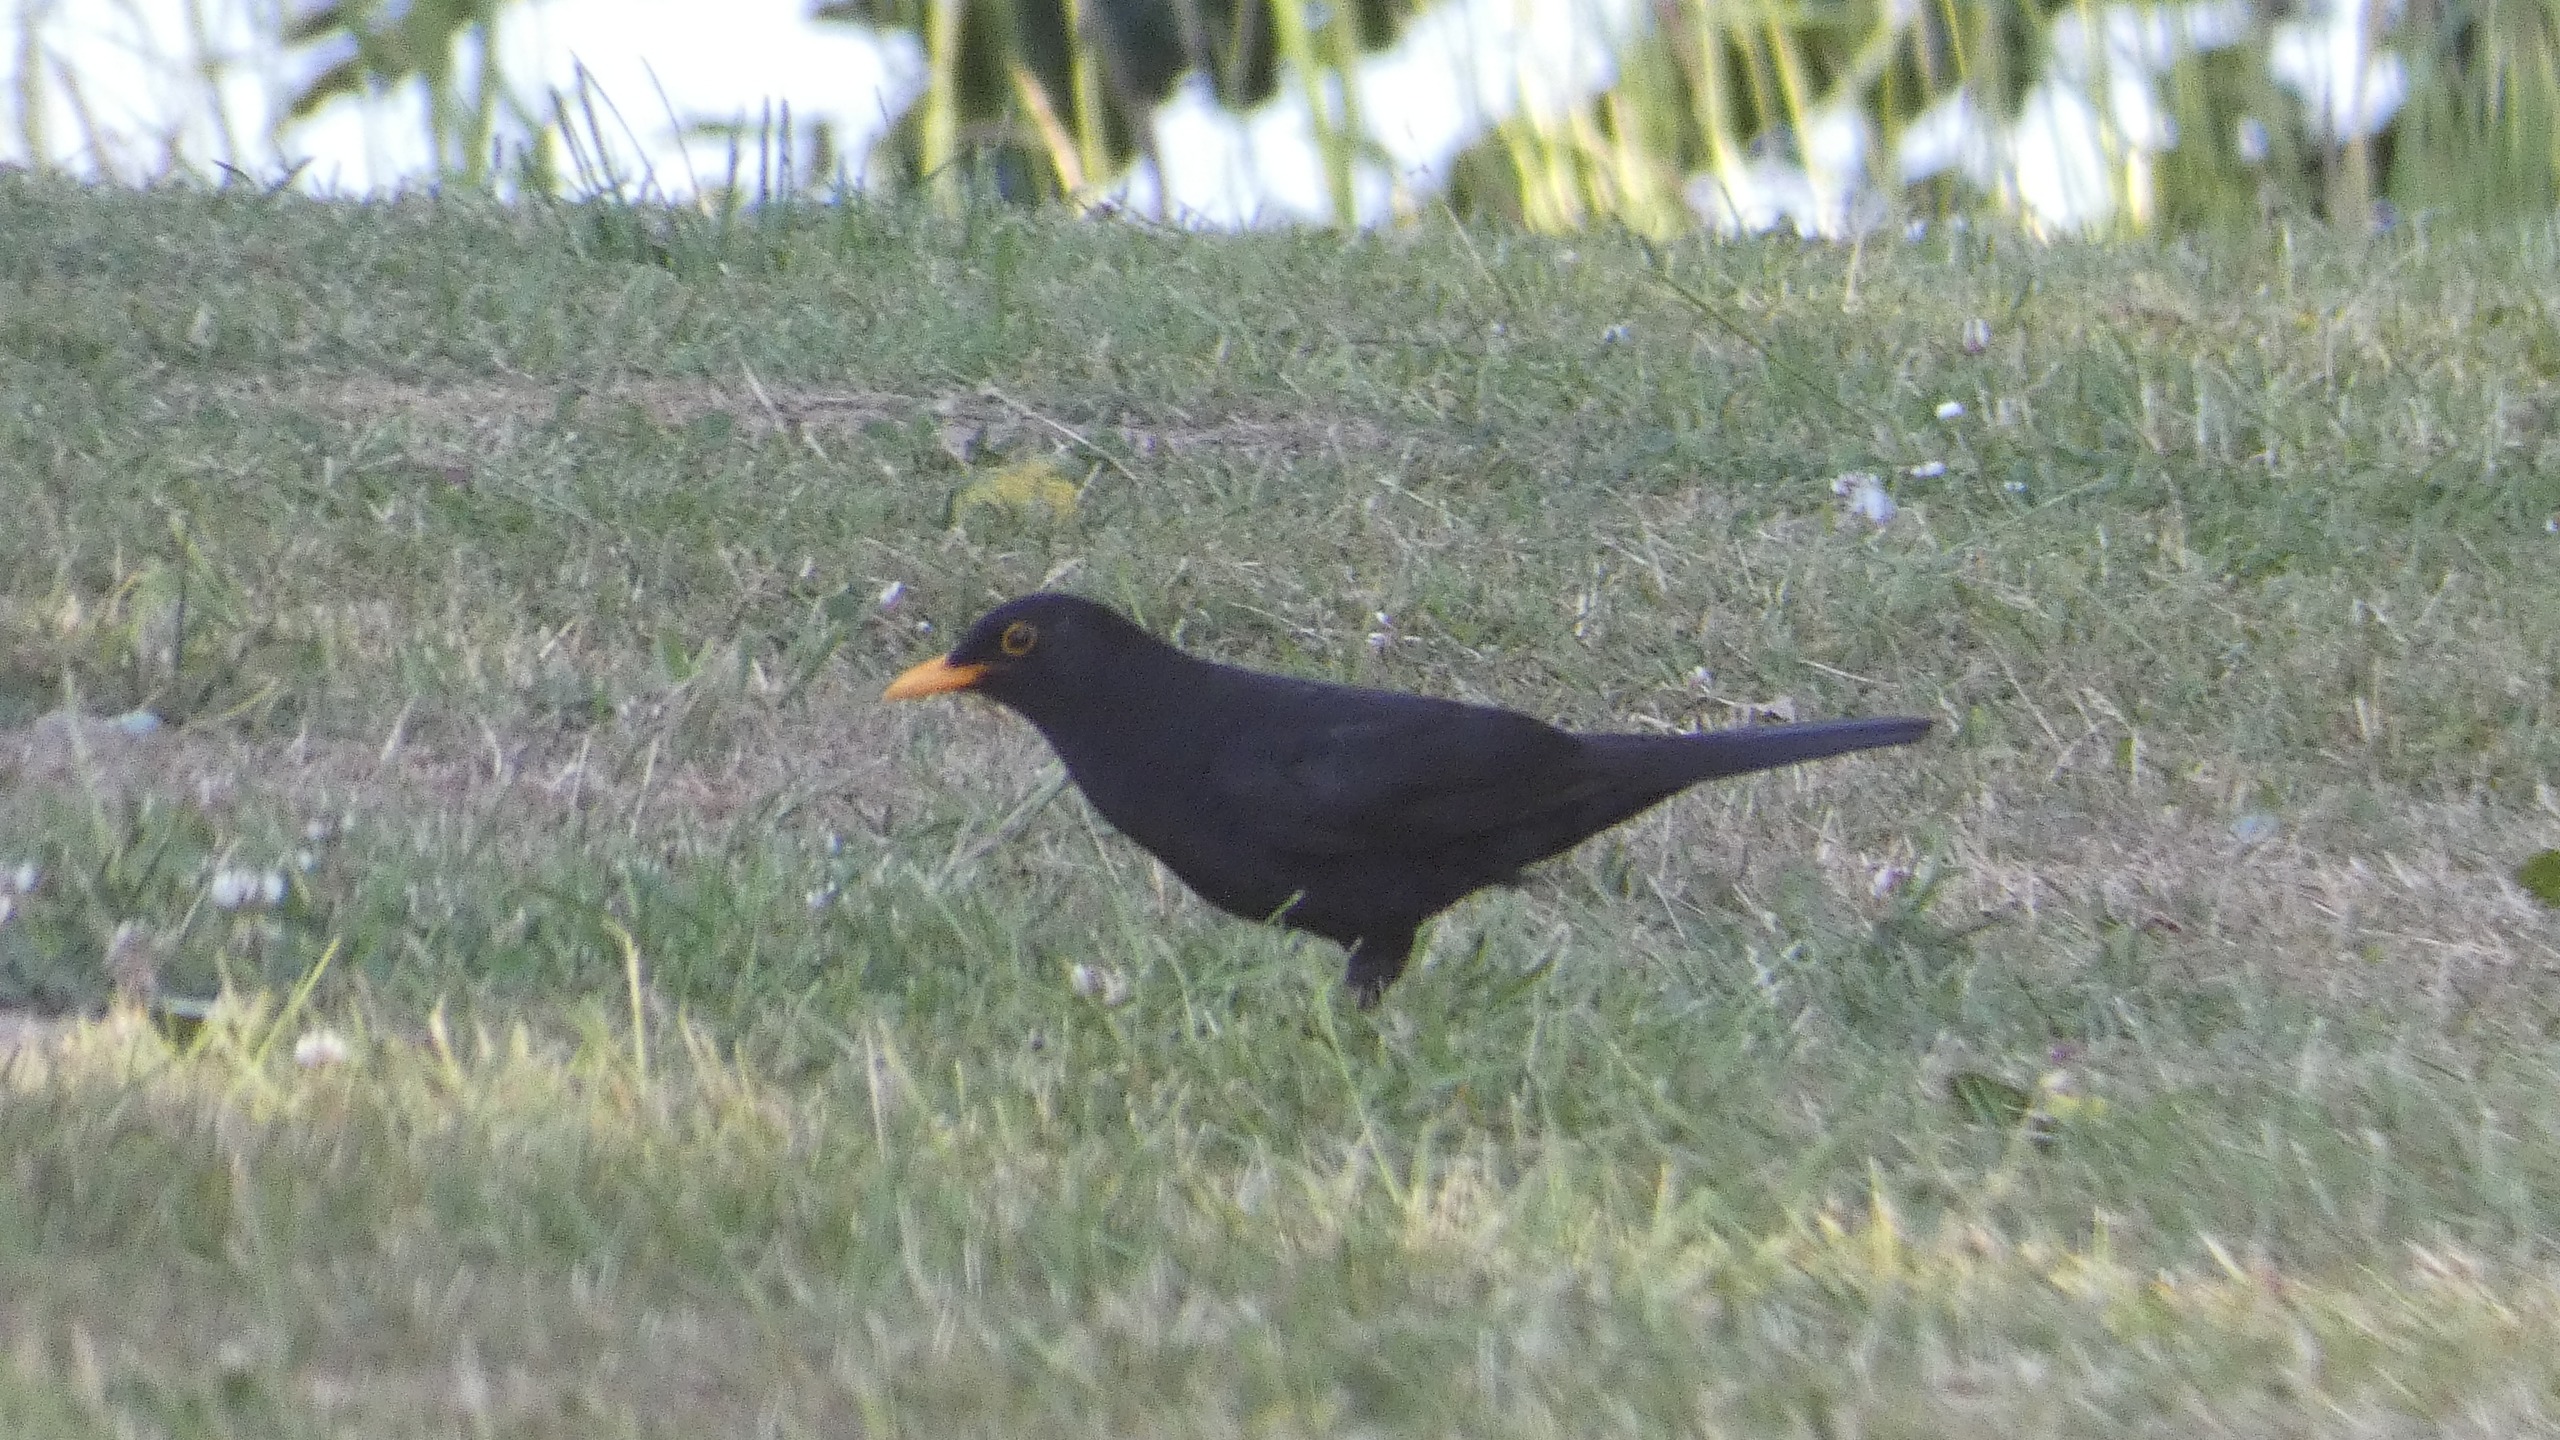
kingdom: Animalia
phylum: Chordata
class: Aves
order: Passeriformes
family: Turdidae
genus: Turdus
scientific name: Turdus merula
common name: Solsort
